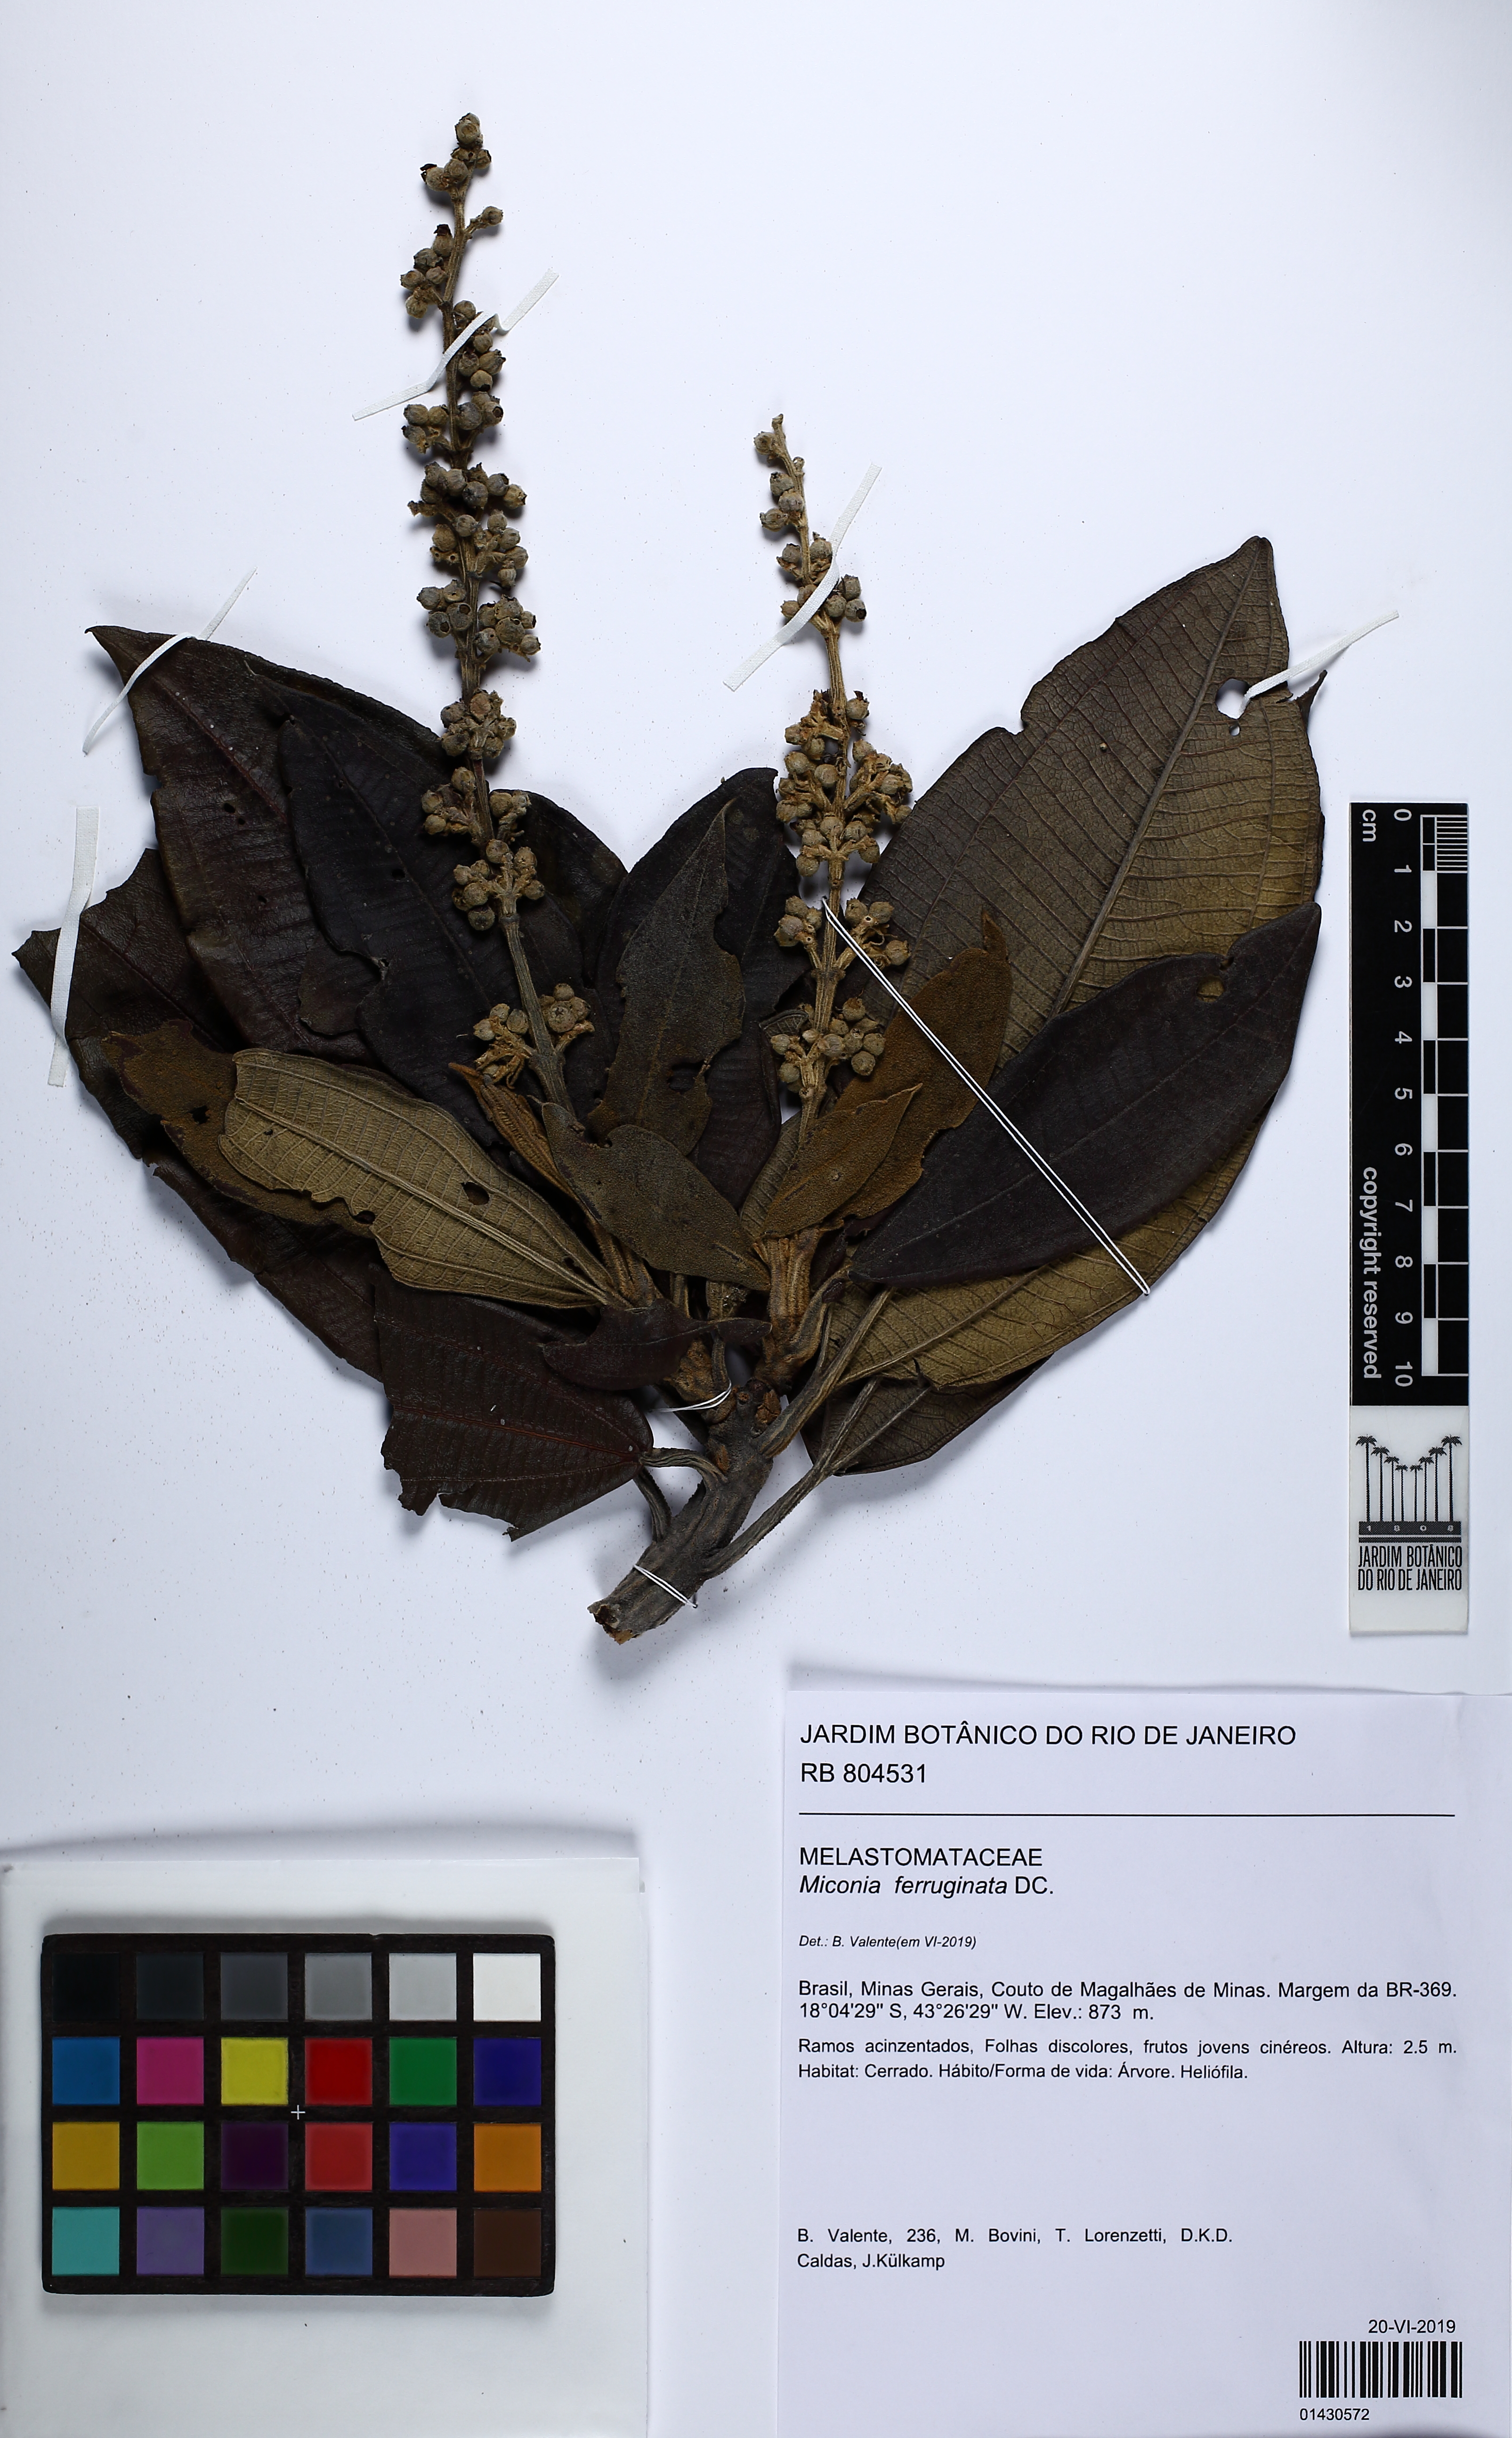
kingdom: Plantae
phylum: Tracheophyta
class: Magnoliopsida
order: Myrtales
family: Melastomataceae
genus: Miconia
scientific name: Miconia ferruginata
